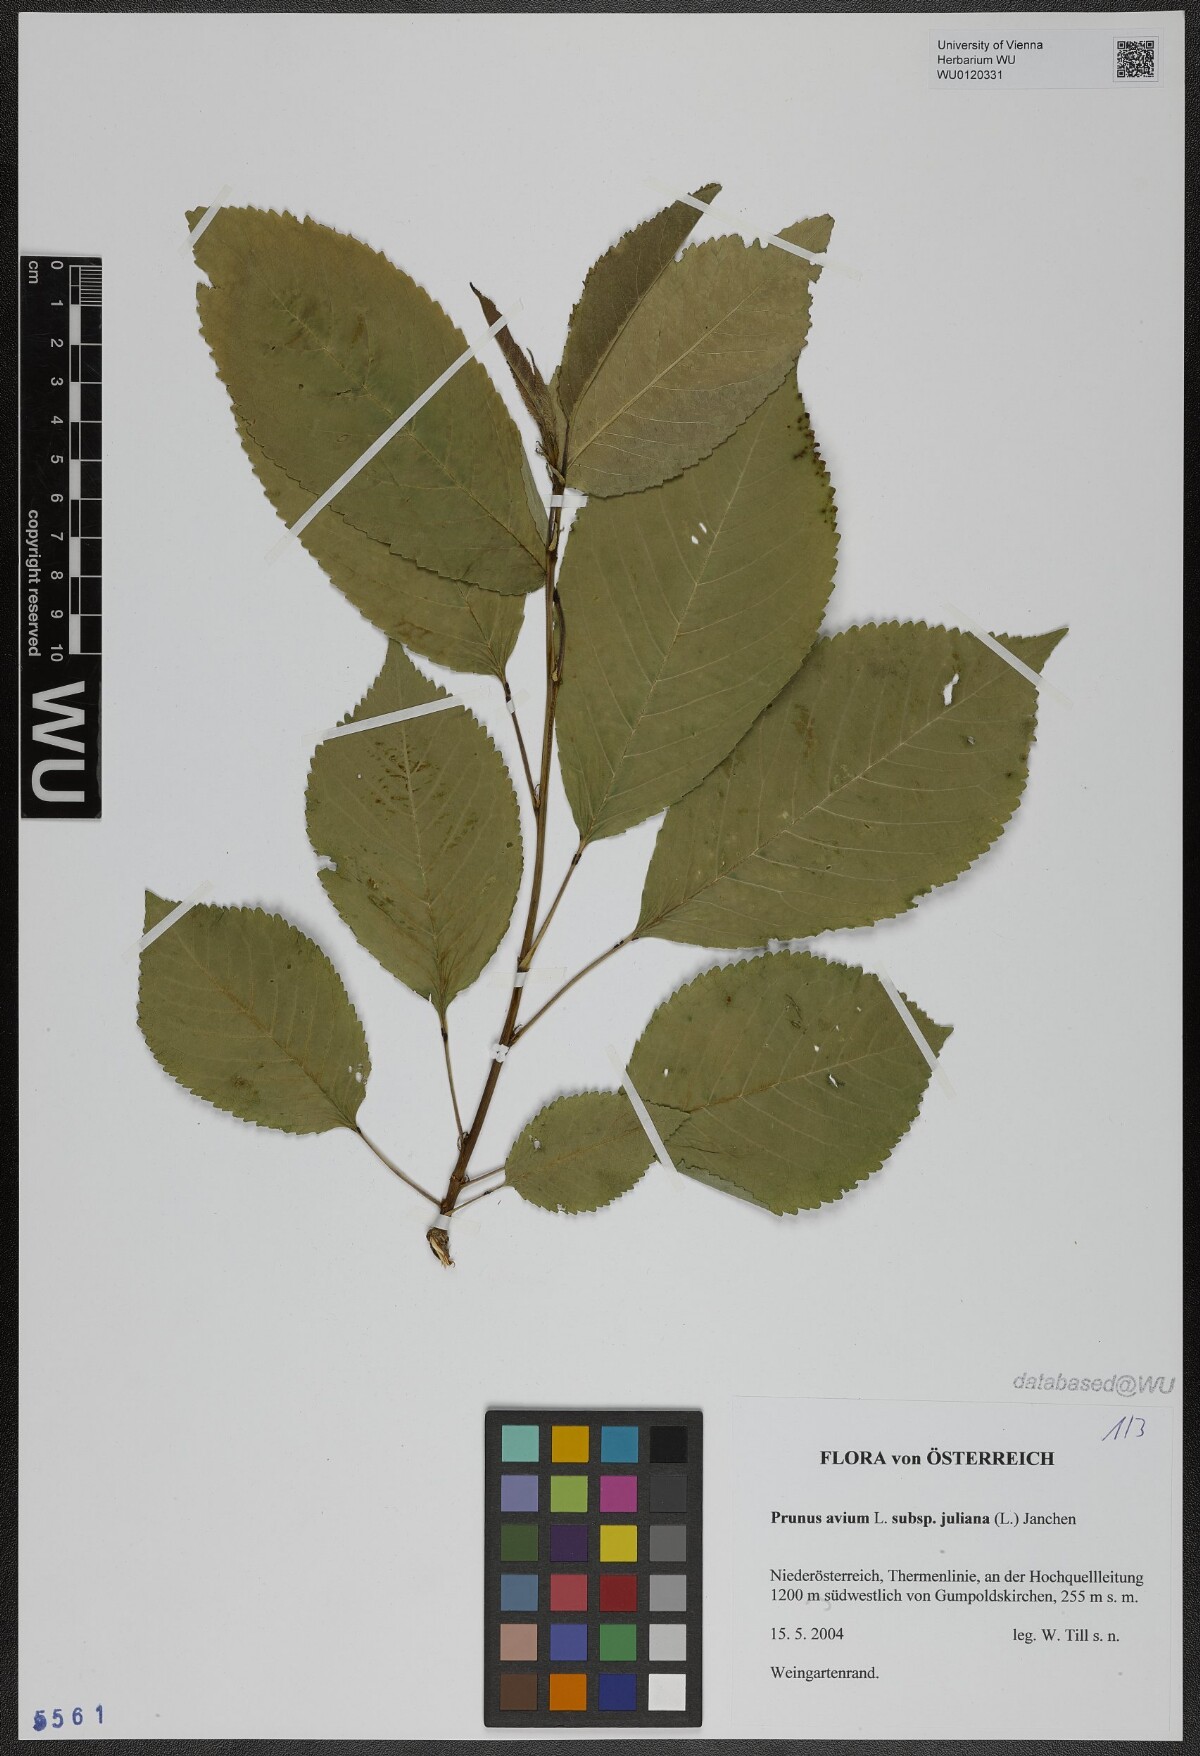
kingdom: Plantae
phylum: Tracheophyta
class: Magnoliopsida
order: Rosales
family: Rosaceae
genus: Prunus
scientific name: Prunus avium
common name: Sweet cherry
